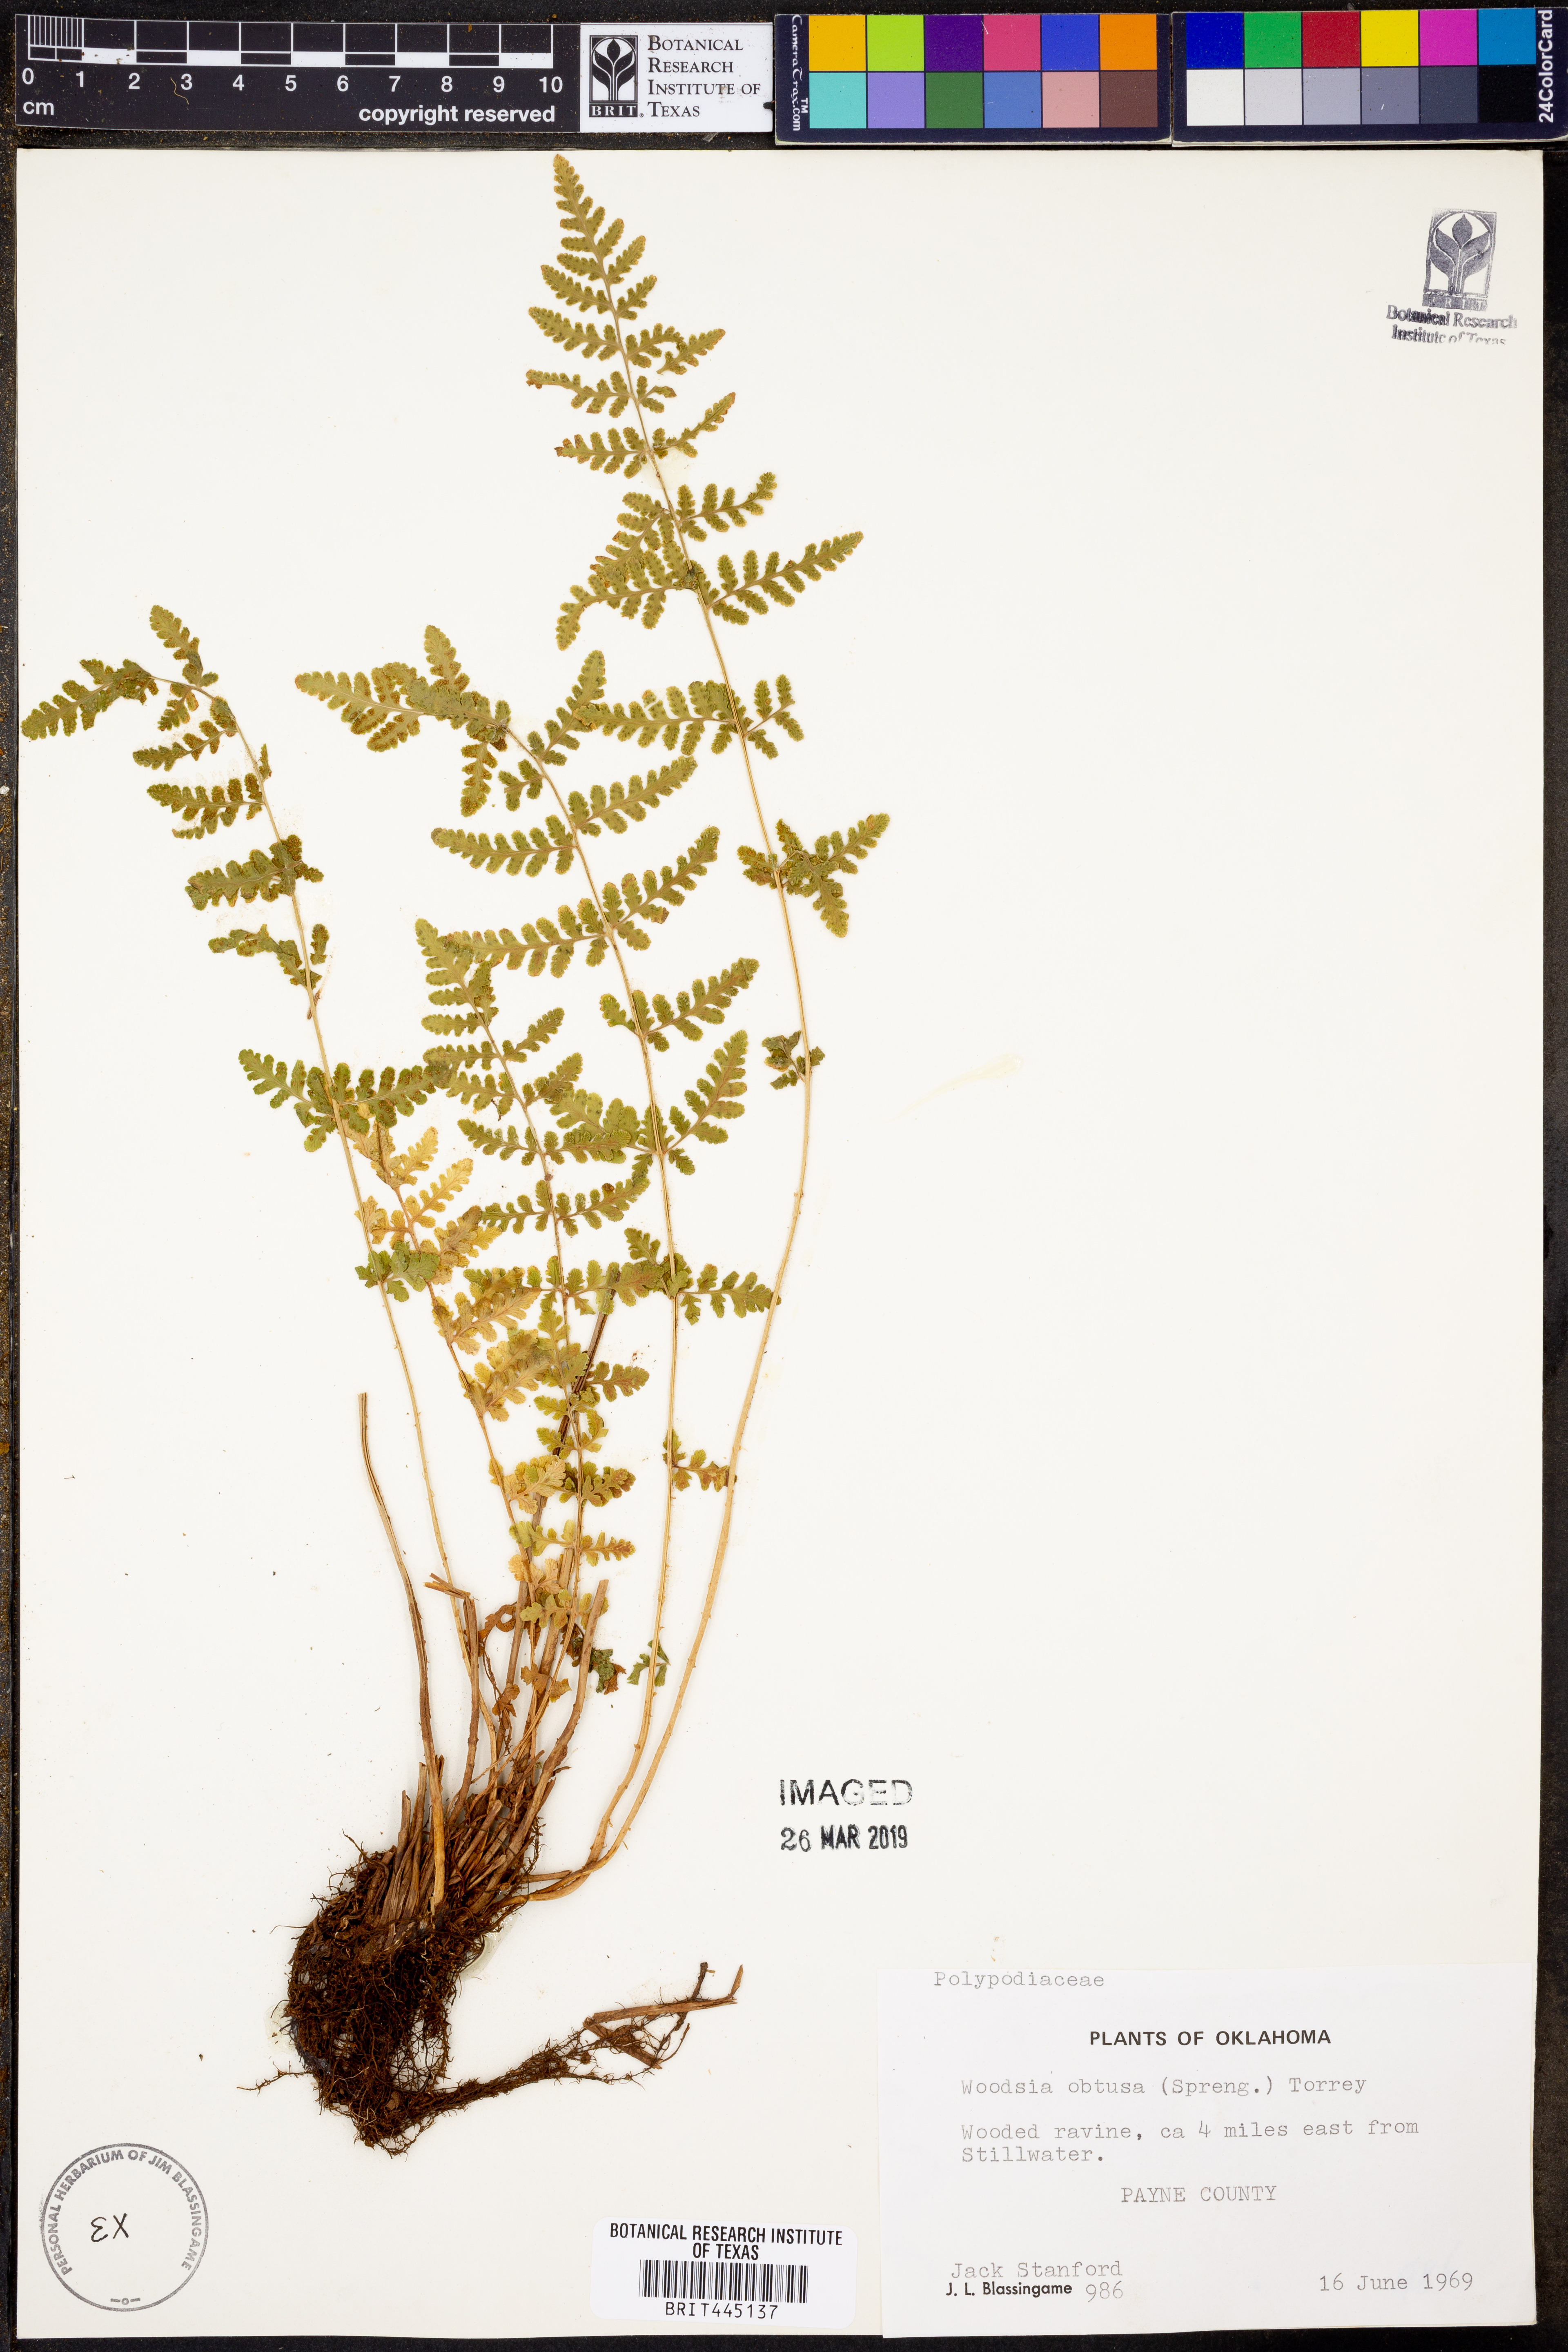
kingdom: Plantae
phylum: Tracheophyta
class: Polypodiopsida
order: Polypodiales
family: Woodsiaceae
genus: Physematium
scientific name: Physematium obtusum
